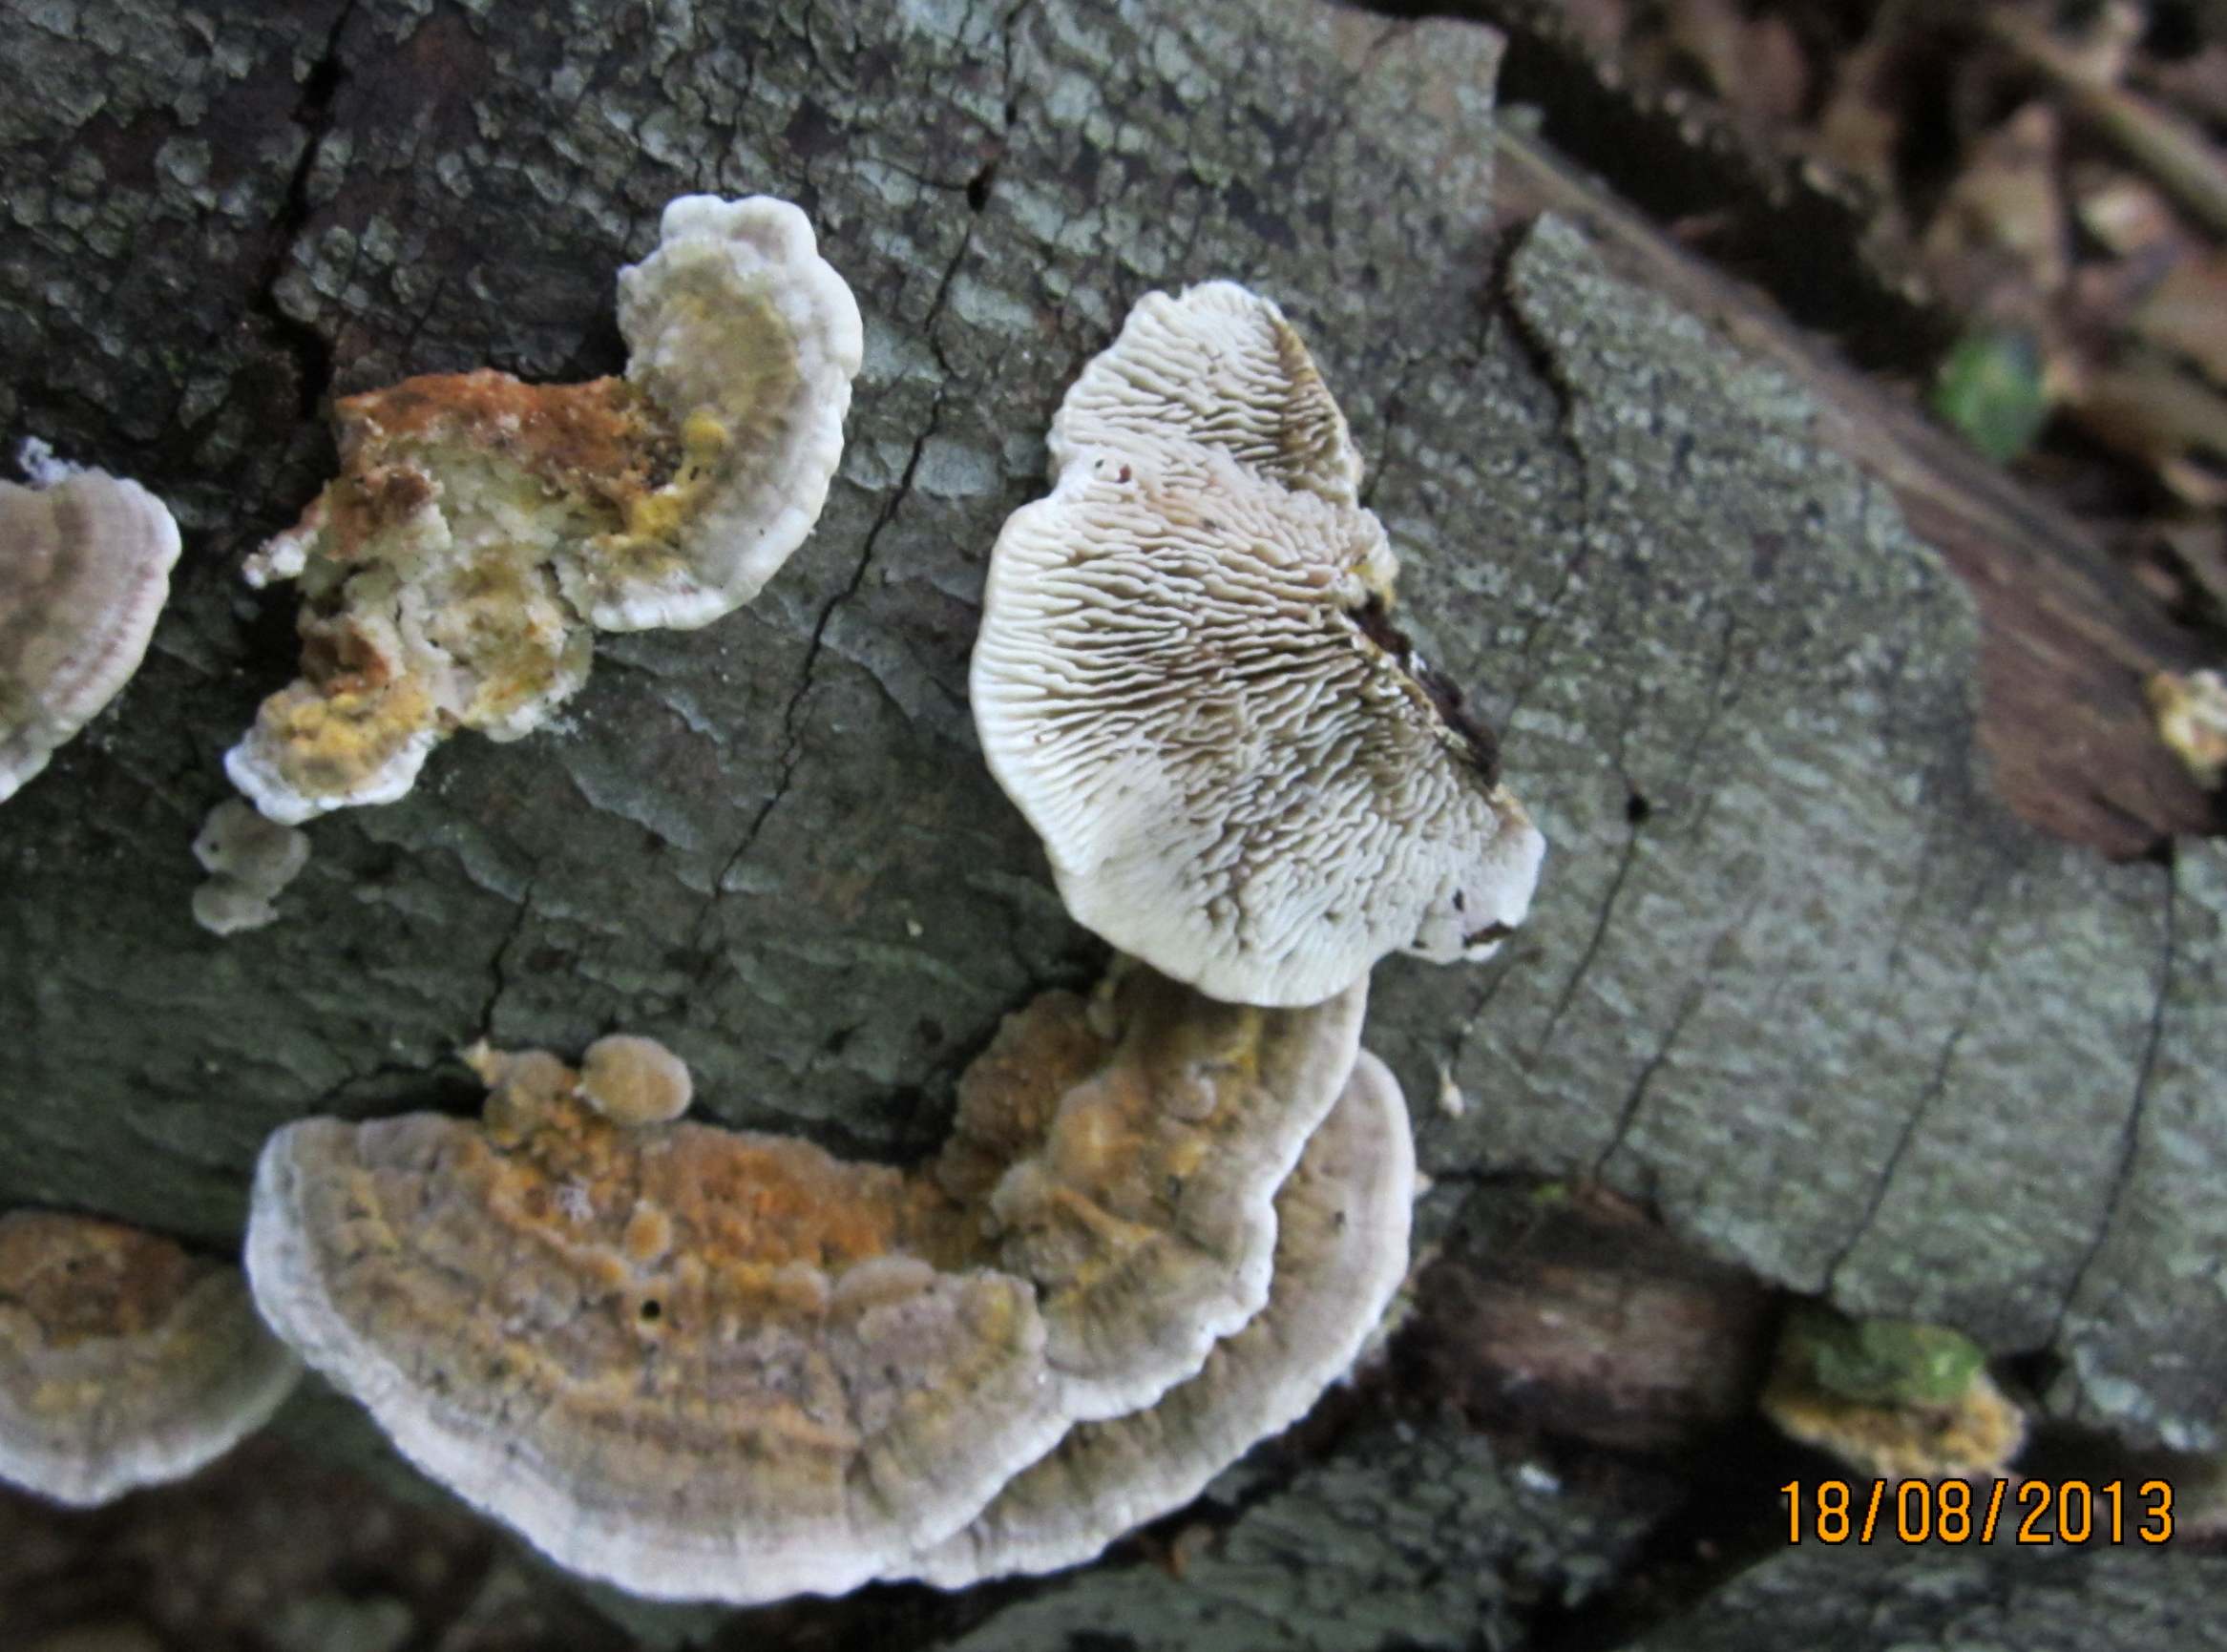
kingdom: Fungi
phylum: Basidiomycota
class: Agaricomycetes
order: Polyporales
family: Polyporaceae
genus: Lenzites
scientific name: Lenzites betulinus
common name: birke-læderporesvamp
